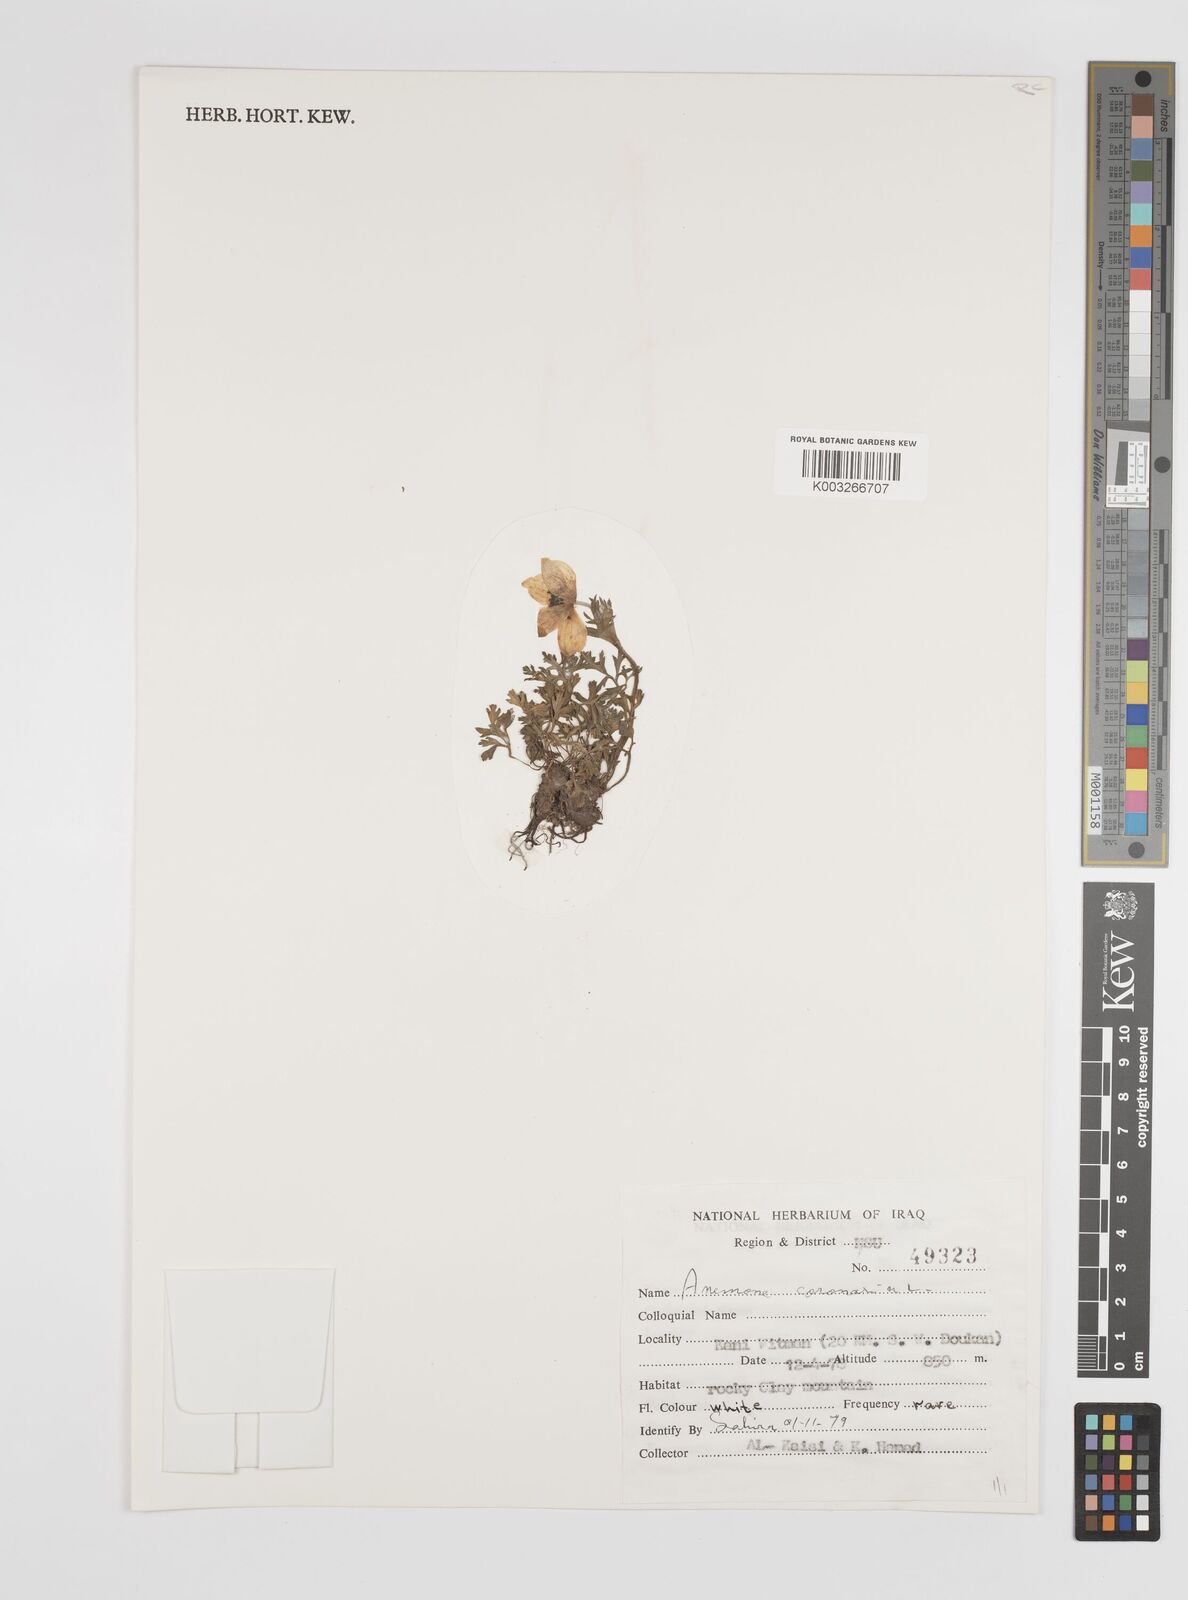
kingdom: Plantae
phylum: Tracheophyta
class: Magnoliopsida
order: Ranunculales
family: Ranunculaceae
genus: Anemone
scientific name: Anemone coronaria
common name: Poppy anemone
